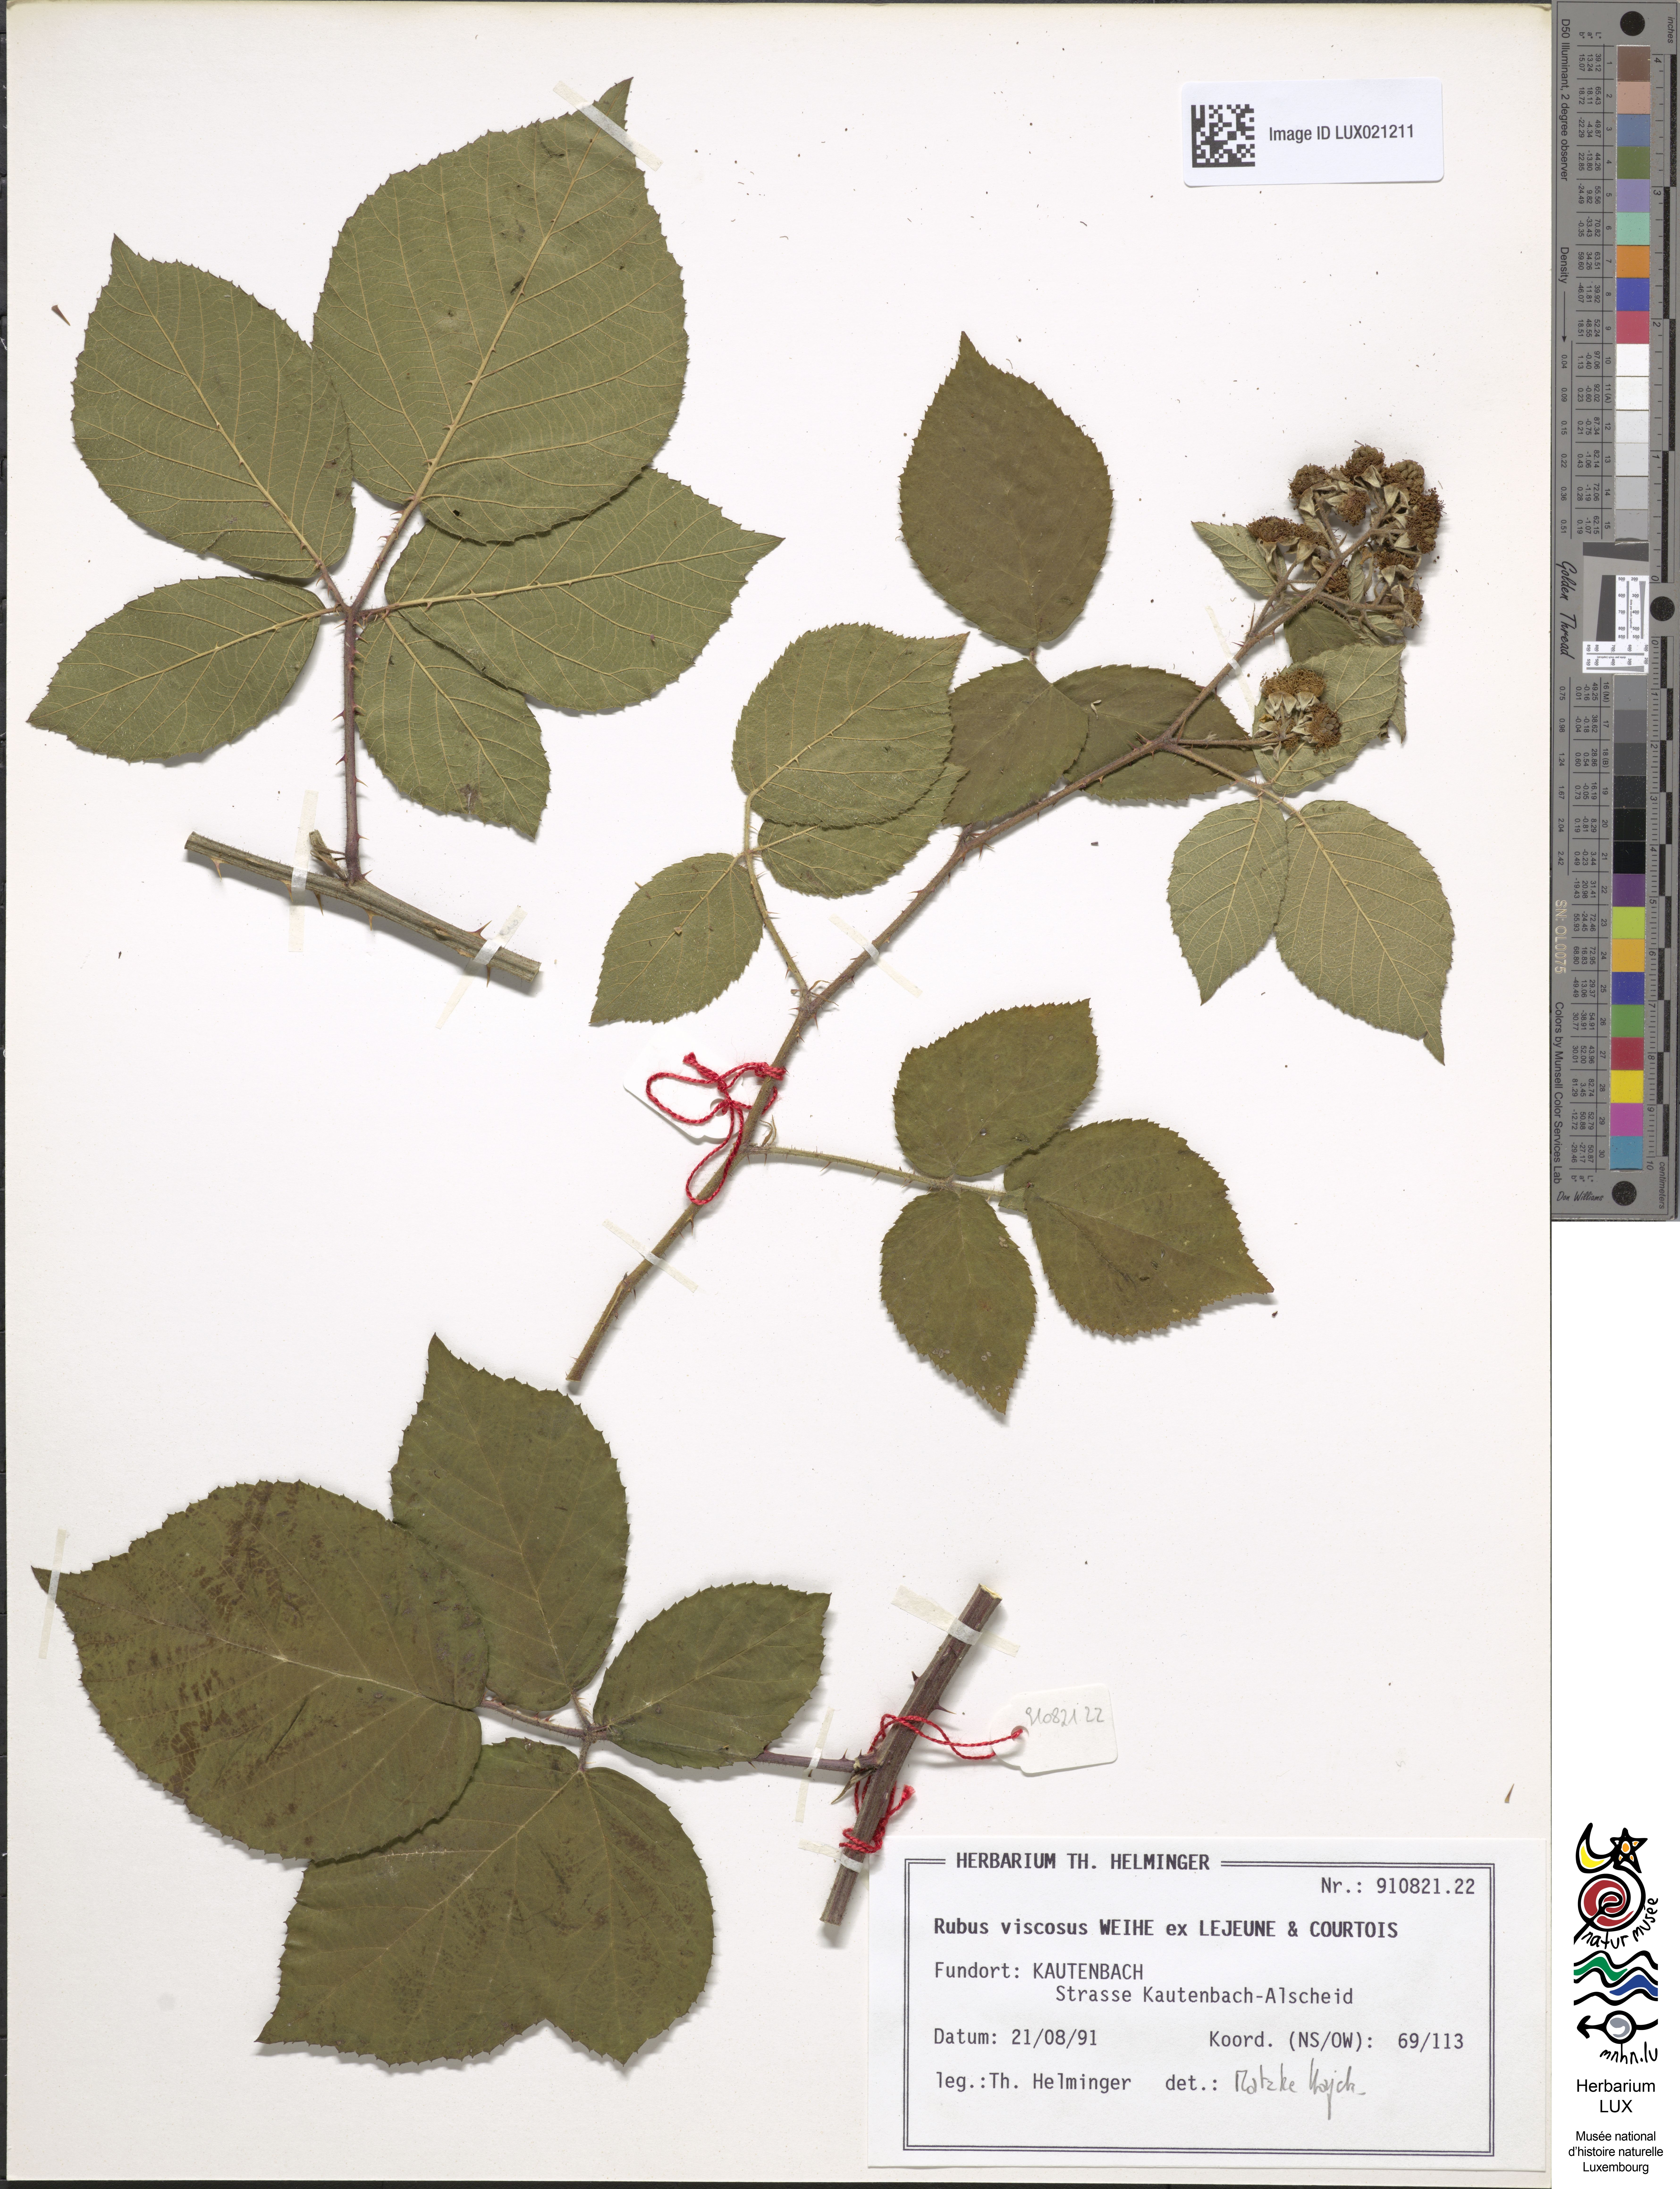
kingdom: Plantae
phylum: Tracheophyta
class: Magnoliopsida
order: Rosales
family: Rosaceae
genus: Rubus
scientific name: Rubus viscosus
